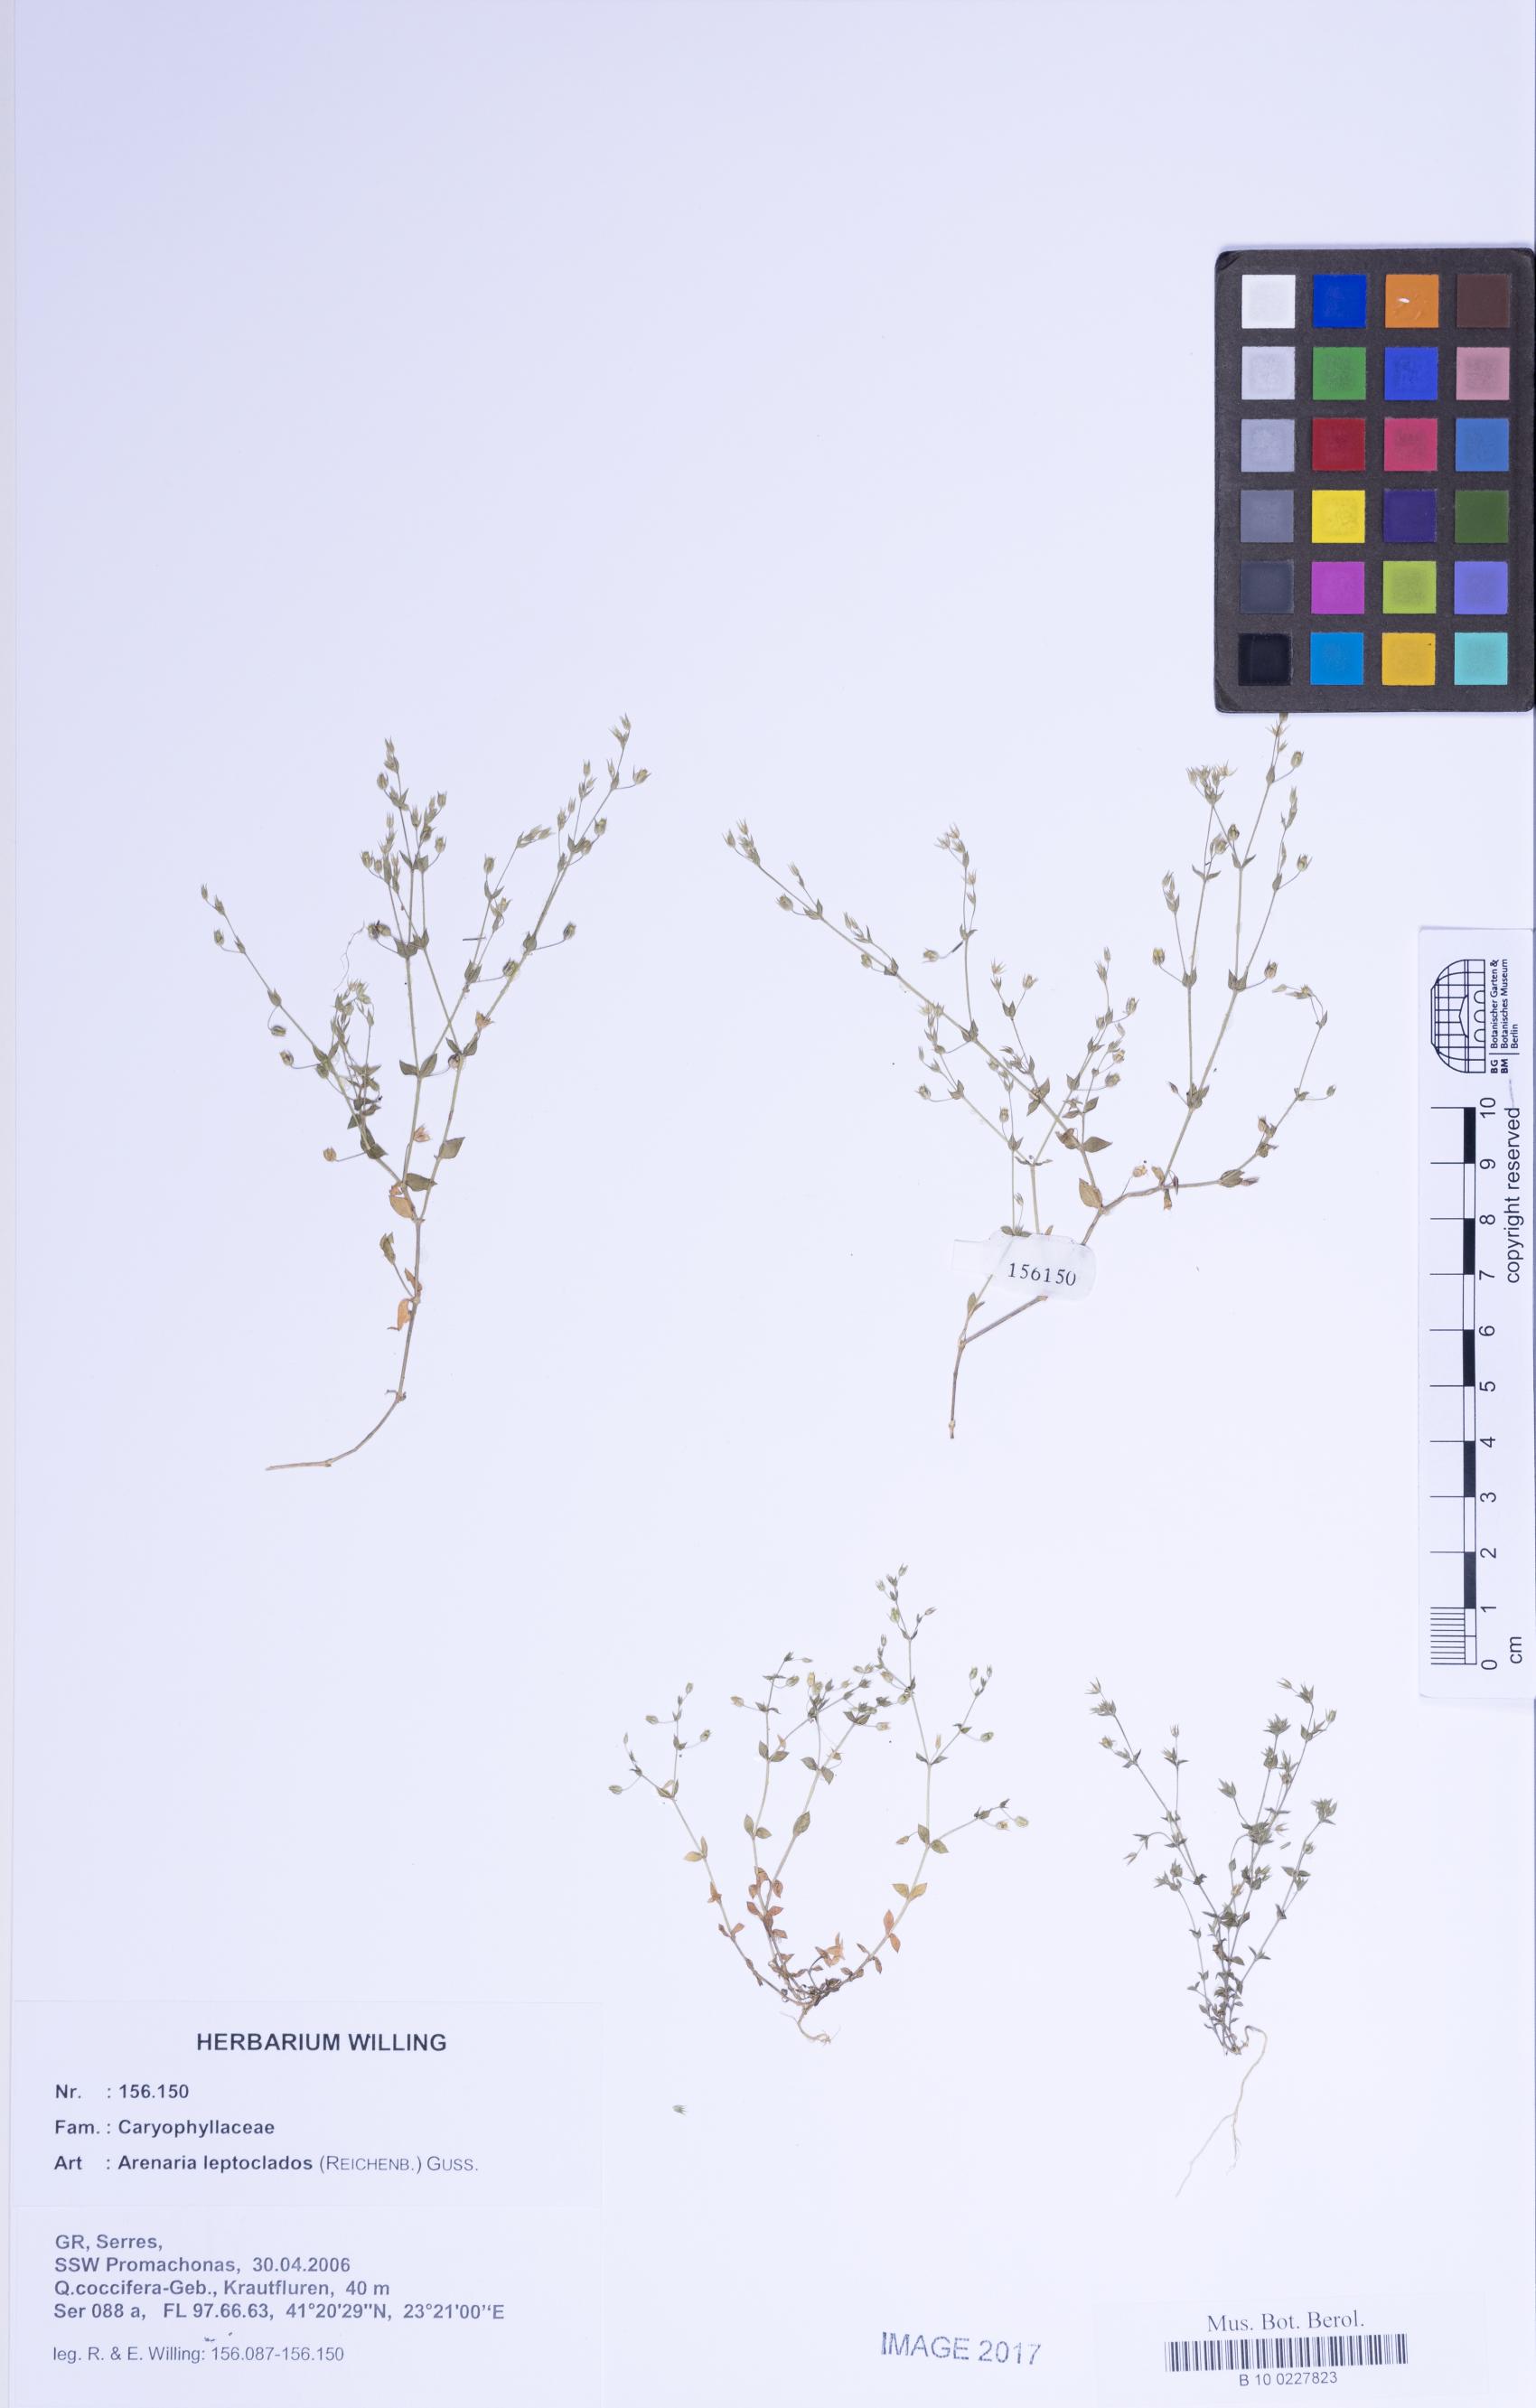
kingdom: Plantae
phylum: Tracheophyta
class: Magnoliopsida
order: Caryophyllales
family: Caryophyllaceae
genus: Arenaria
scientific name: Arenaria leptoclados
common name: Thyme-leaved sandwort
